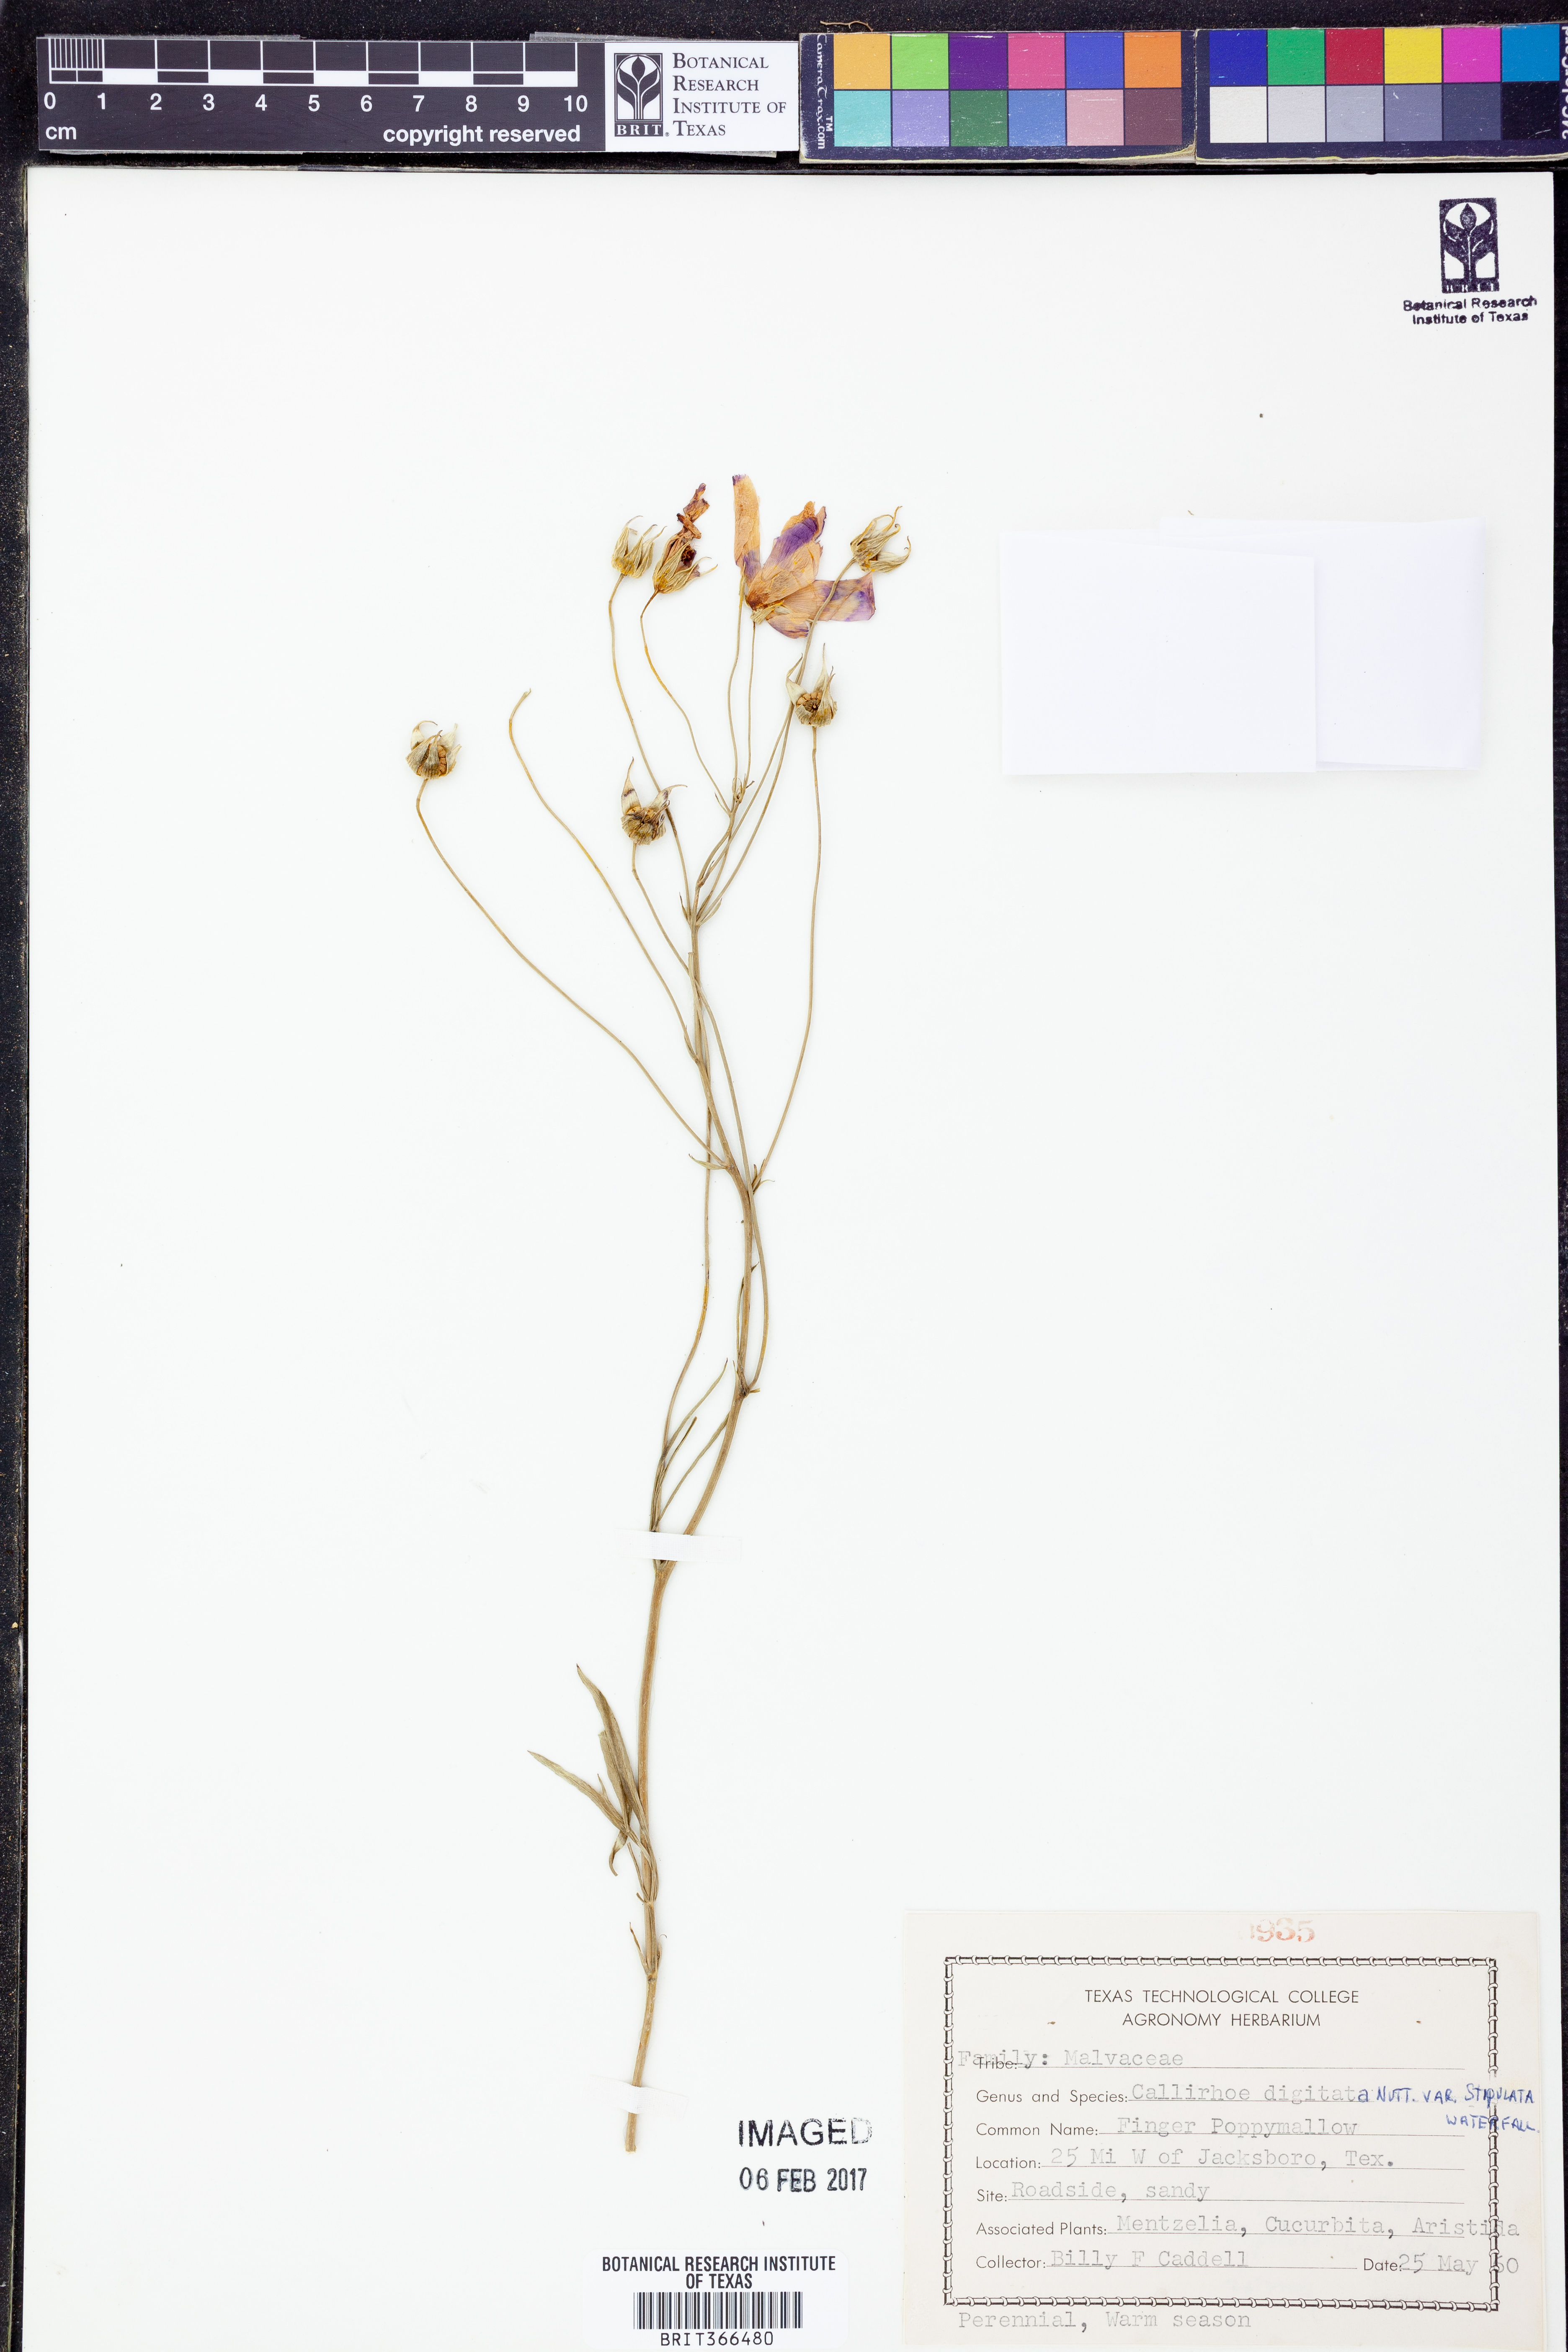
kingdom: Plantae
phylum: Tracheophyta
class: Magnoliopsida
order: Malvales
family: Malvaceae
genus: Callirhoe
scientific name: Callirhoe pedata
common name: Finger poppy-mallow
